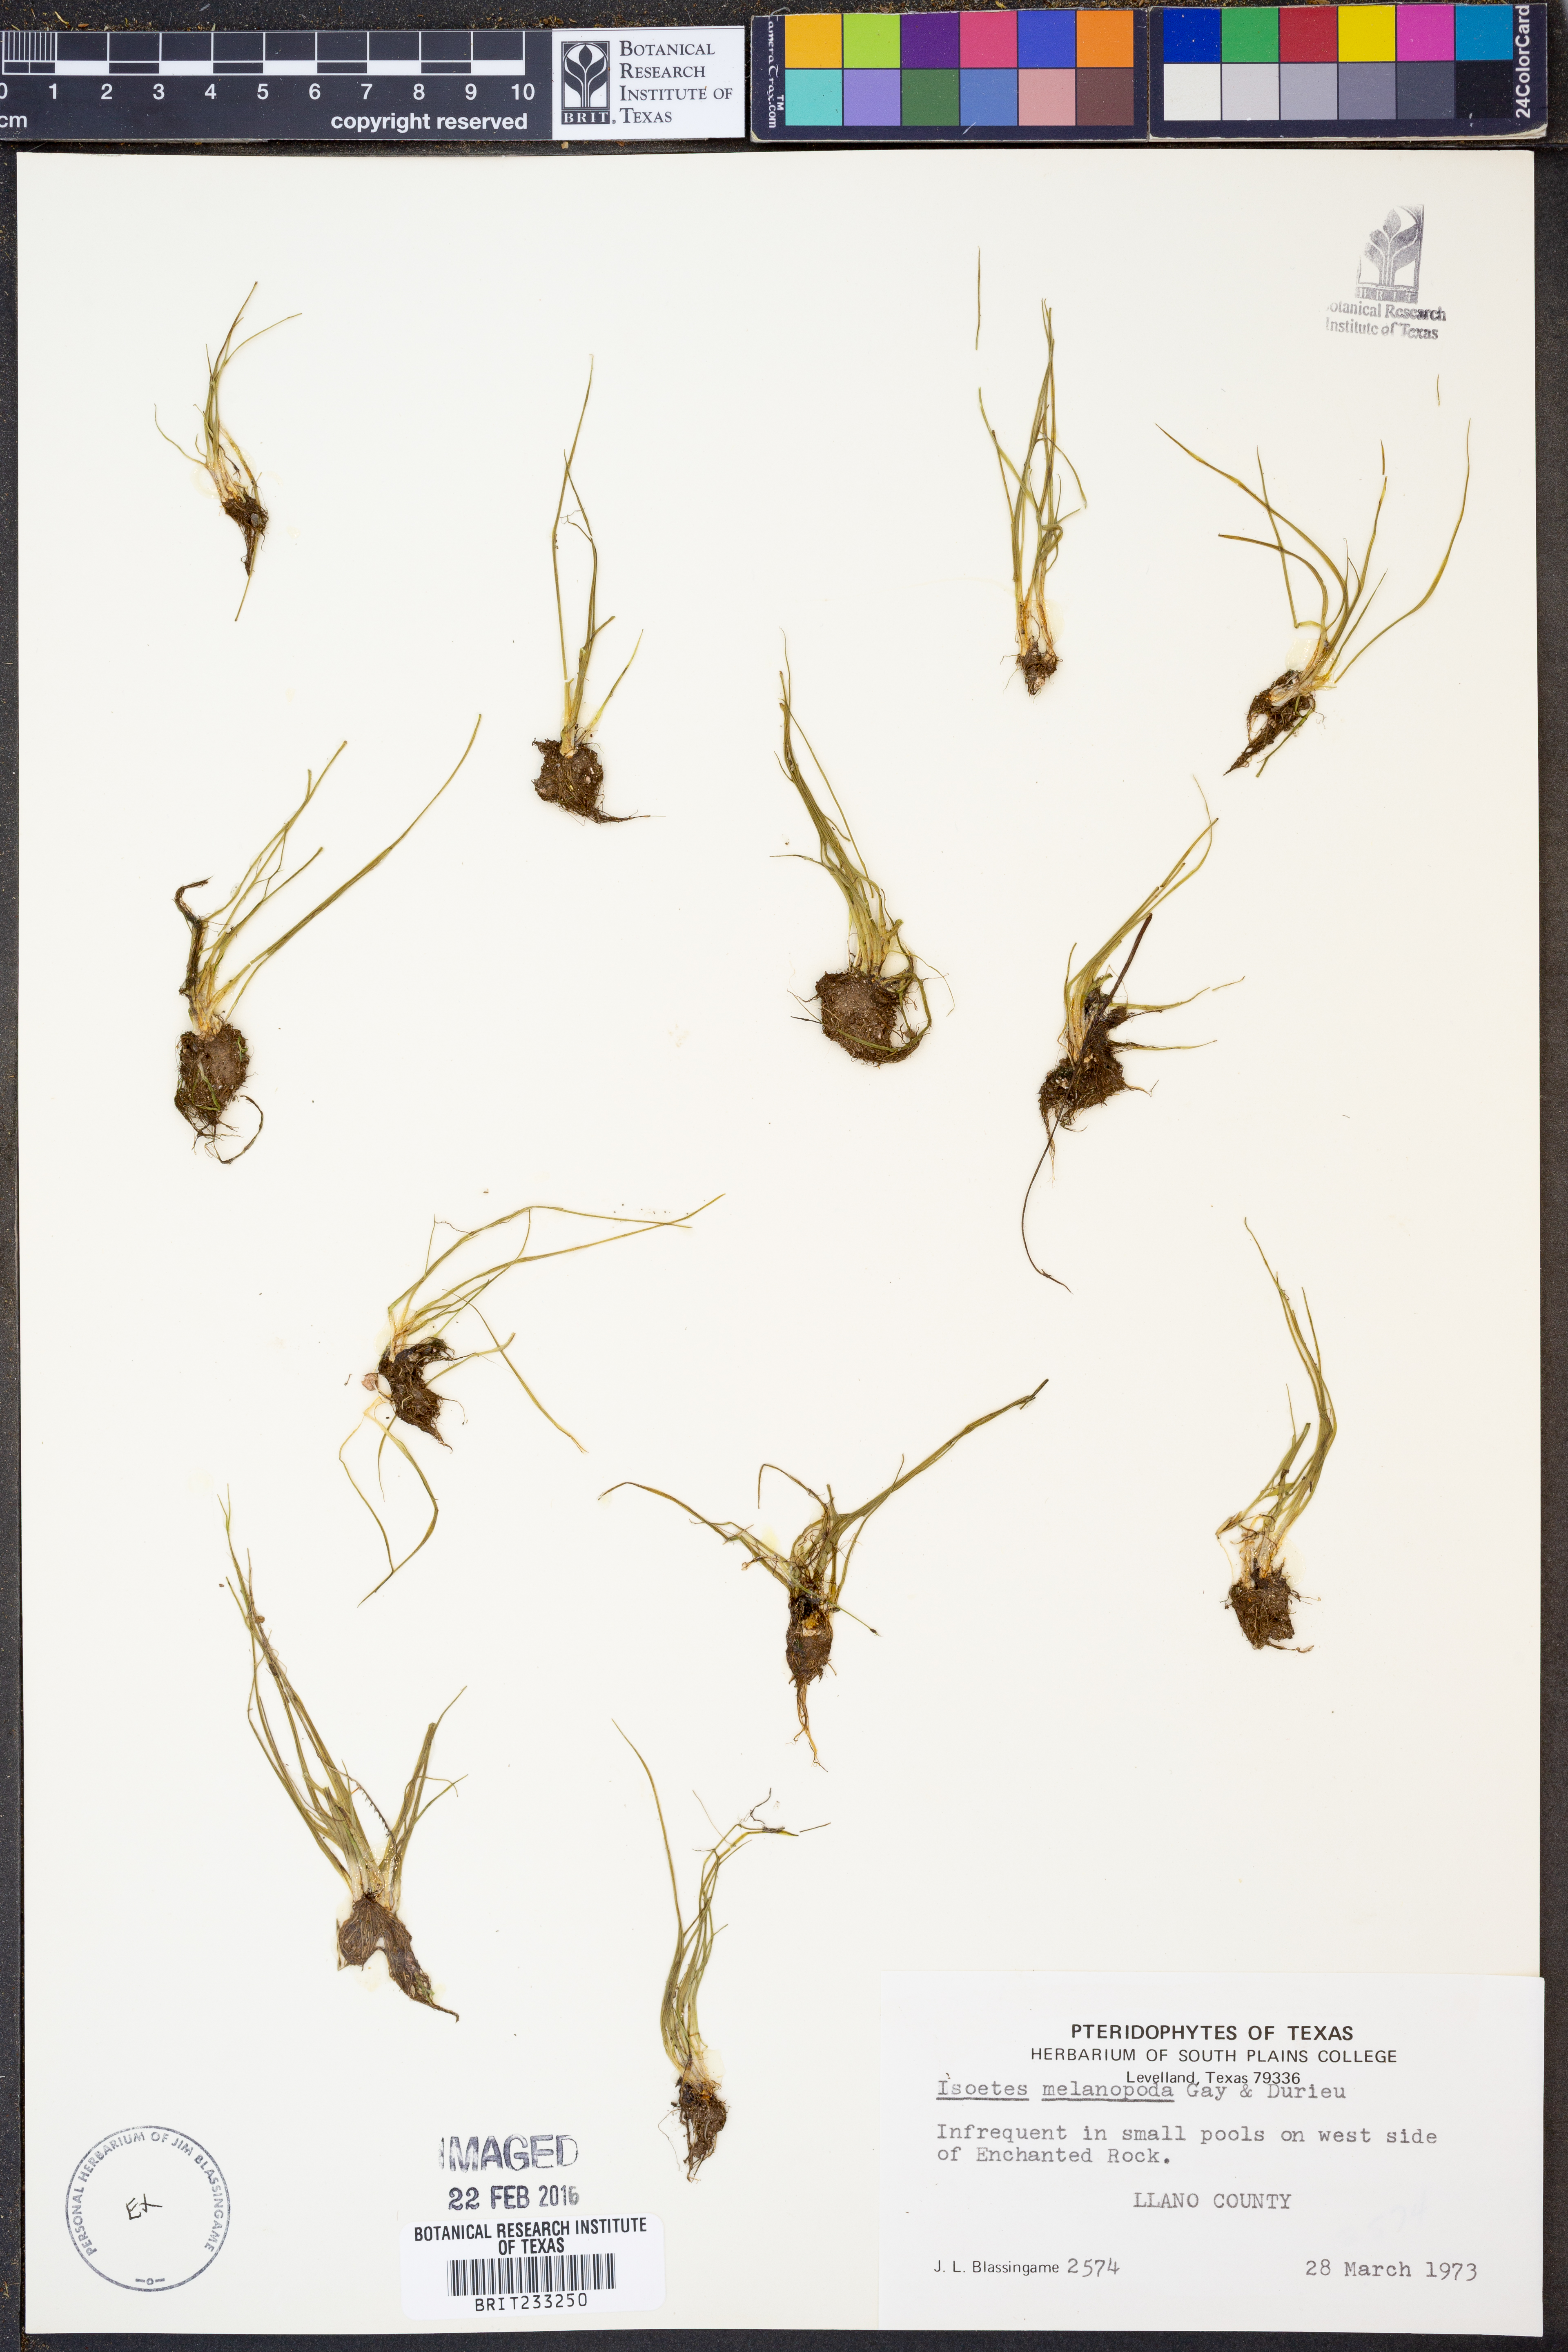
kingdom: Plantae
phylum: Tracheophyta
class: Lycopodiopsida
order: Isoetales
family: Isoetaceae
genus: Isoetes
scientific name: Isoetes melanopoda
